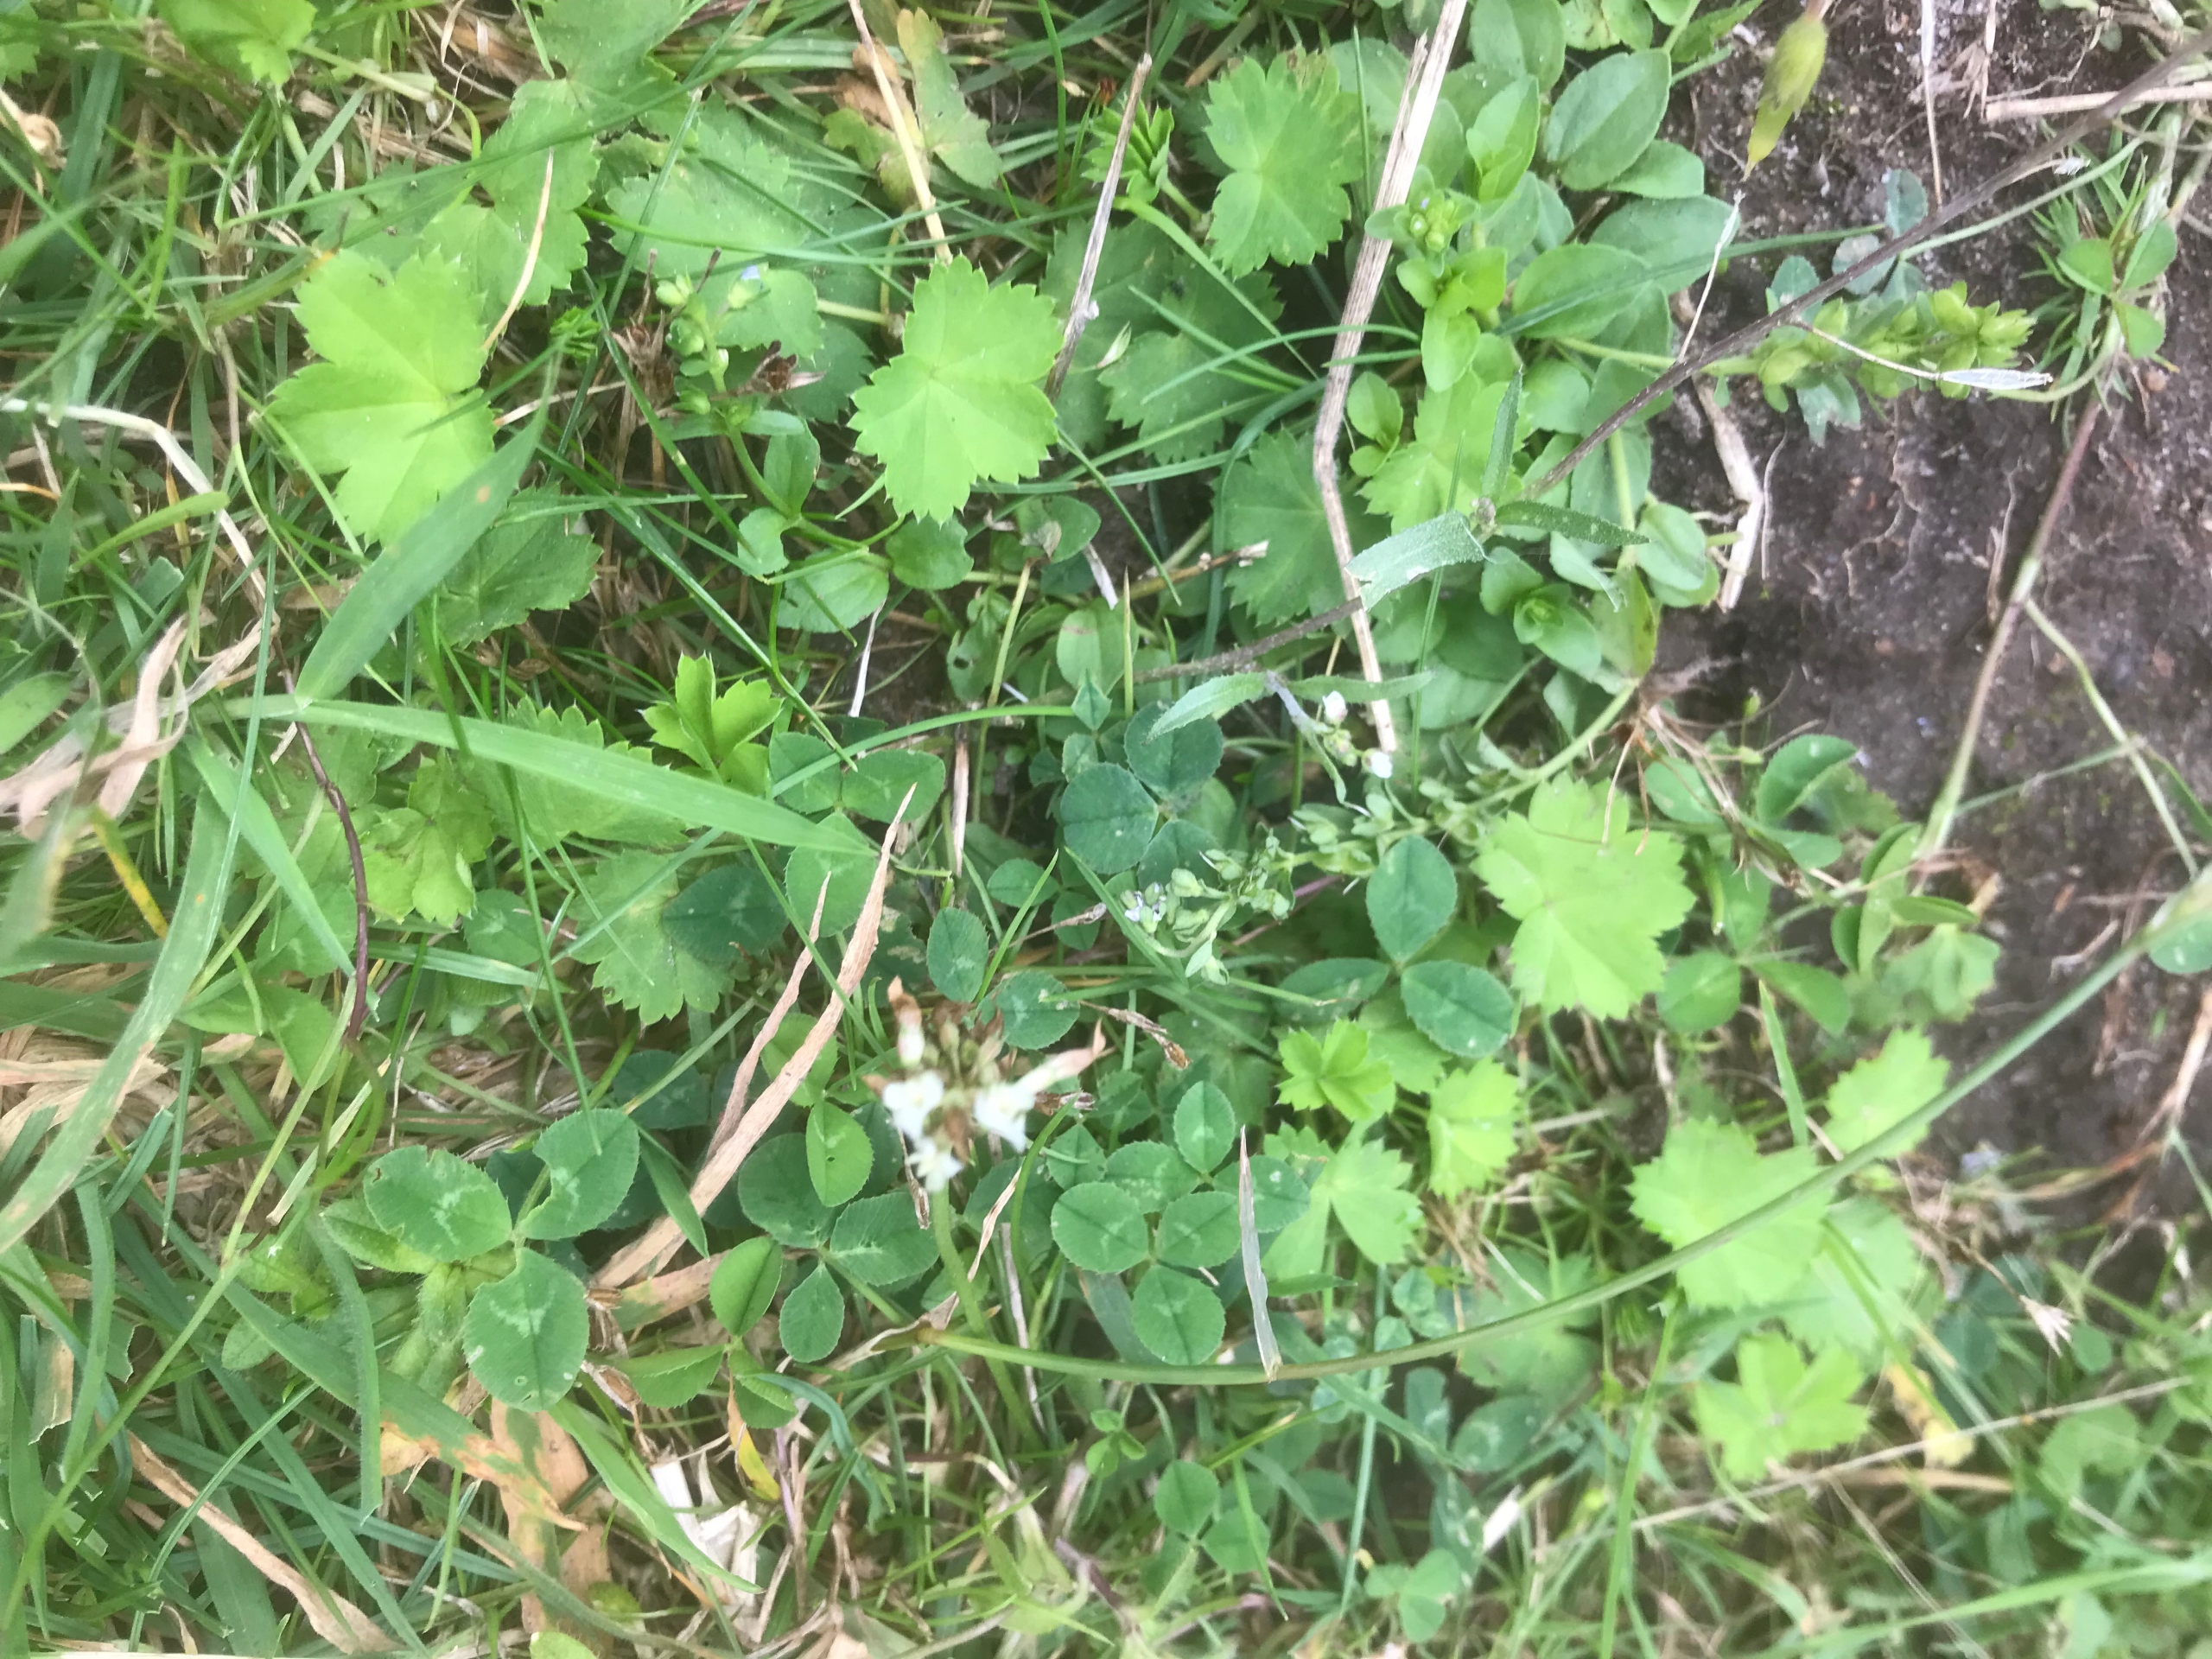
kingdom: Plantae
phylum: Tracheophyta
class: Magnoliopsida
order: Rosales
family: Rosaceae
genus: Alchemilla
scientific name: Alchemilla glabra
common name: Glat løvefod
